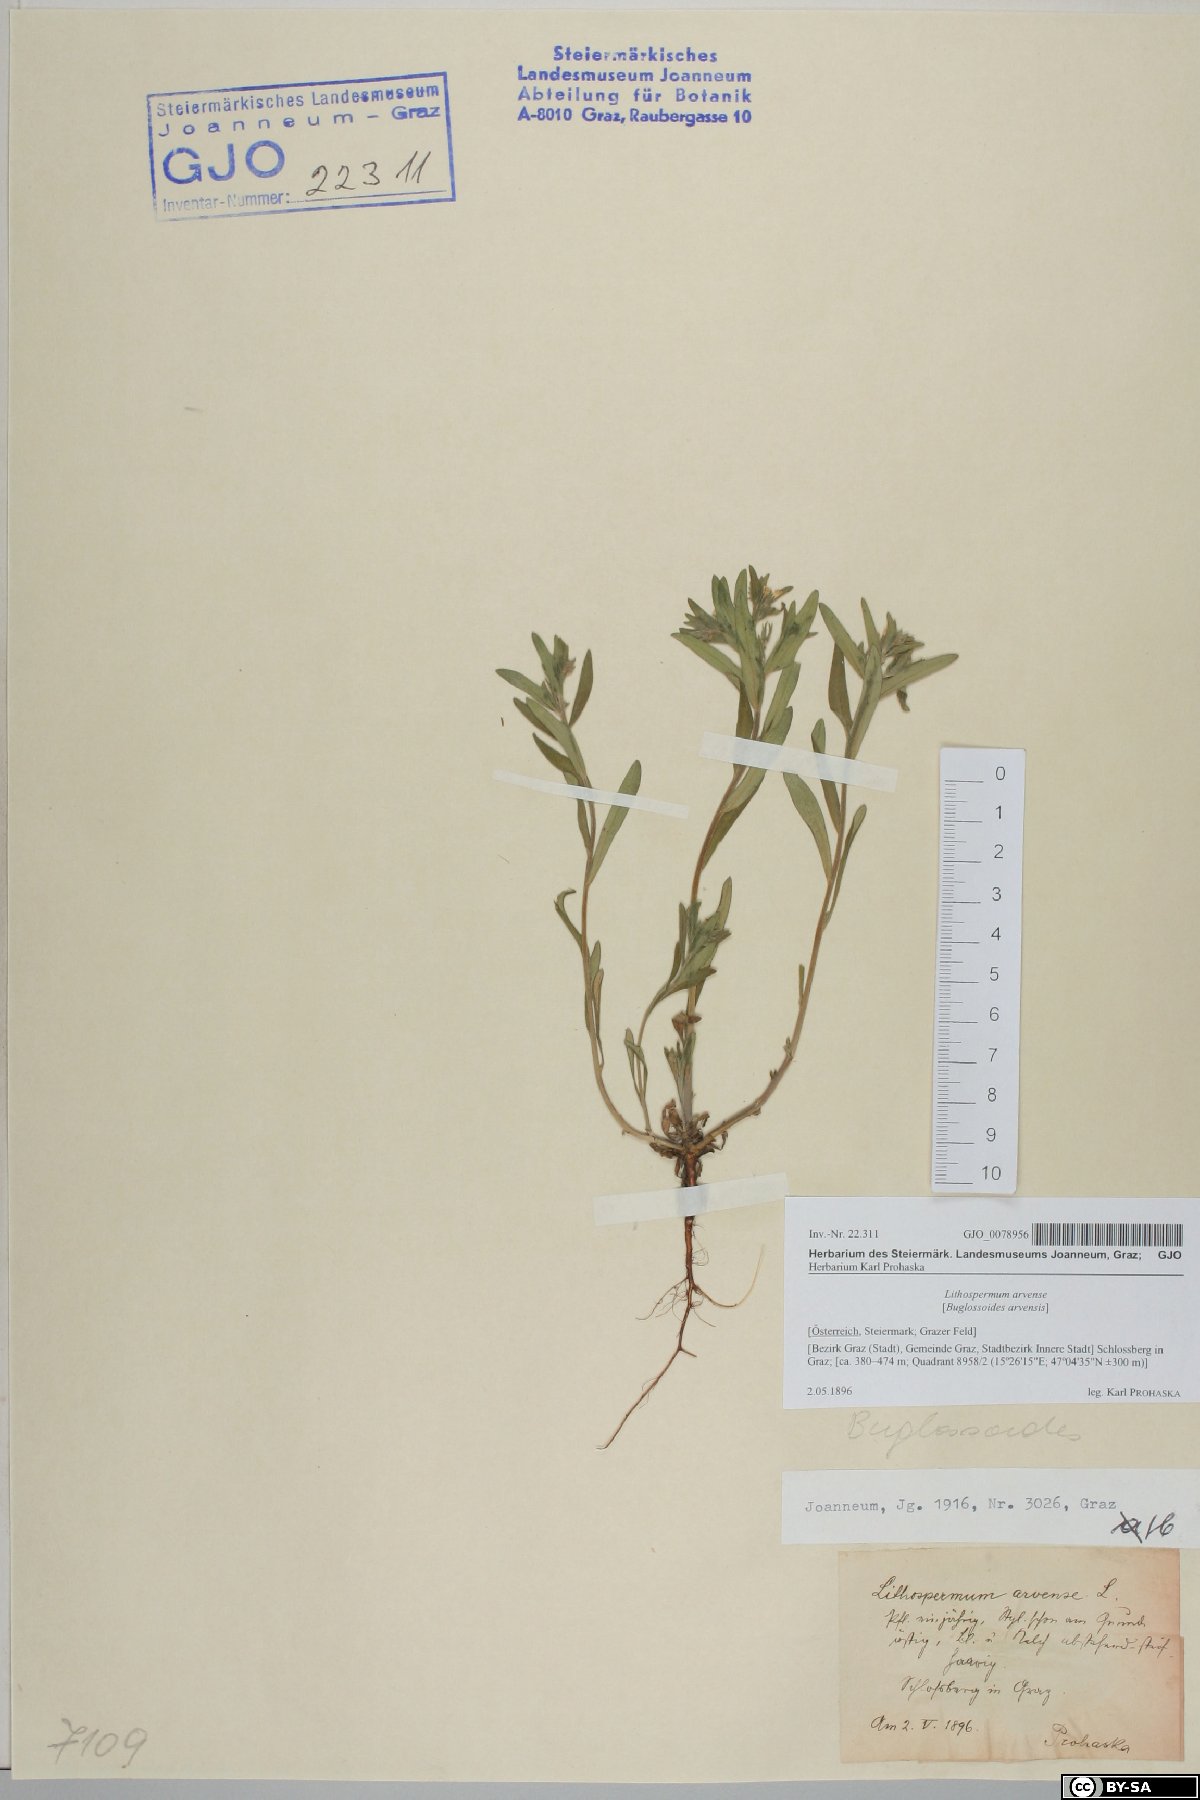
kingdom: Plantae
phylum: Tracheophyta
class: Magnoliopsida
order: Boraginales
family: Boraginaceae
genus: Buglossoides
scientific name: Buglossoides arvensis
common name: Corn gromwell
